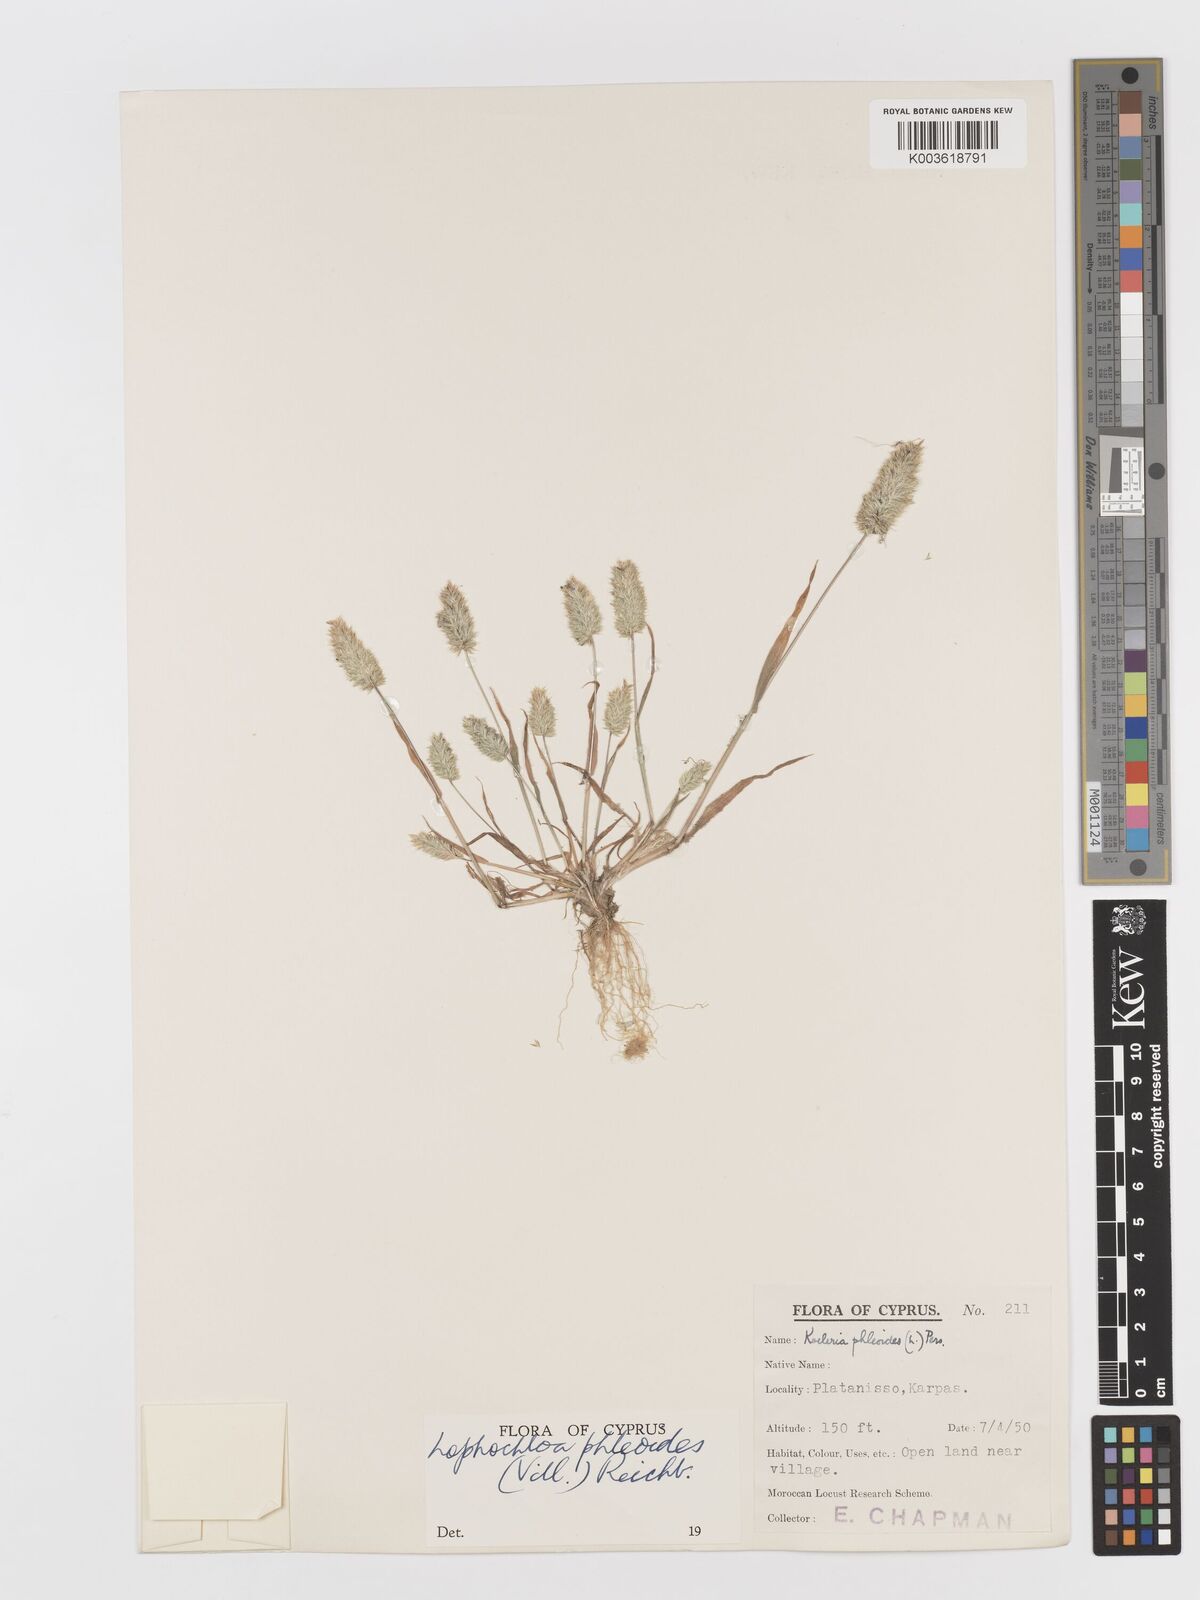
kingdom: Plantae
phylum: Tracheophyta
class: Liliopsida
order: Poales
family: Poaceae
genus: Rostraria
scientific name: Rostraria cristata
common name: Mediterranean hair-grass
